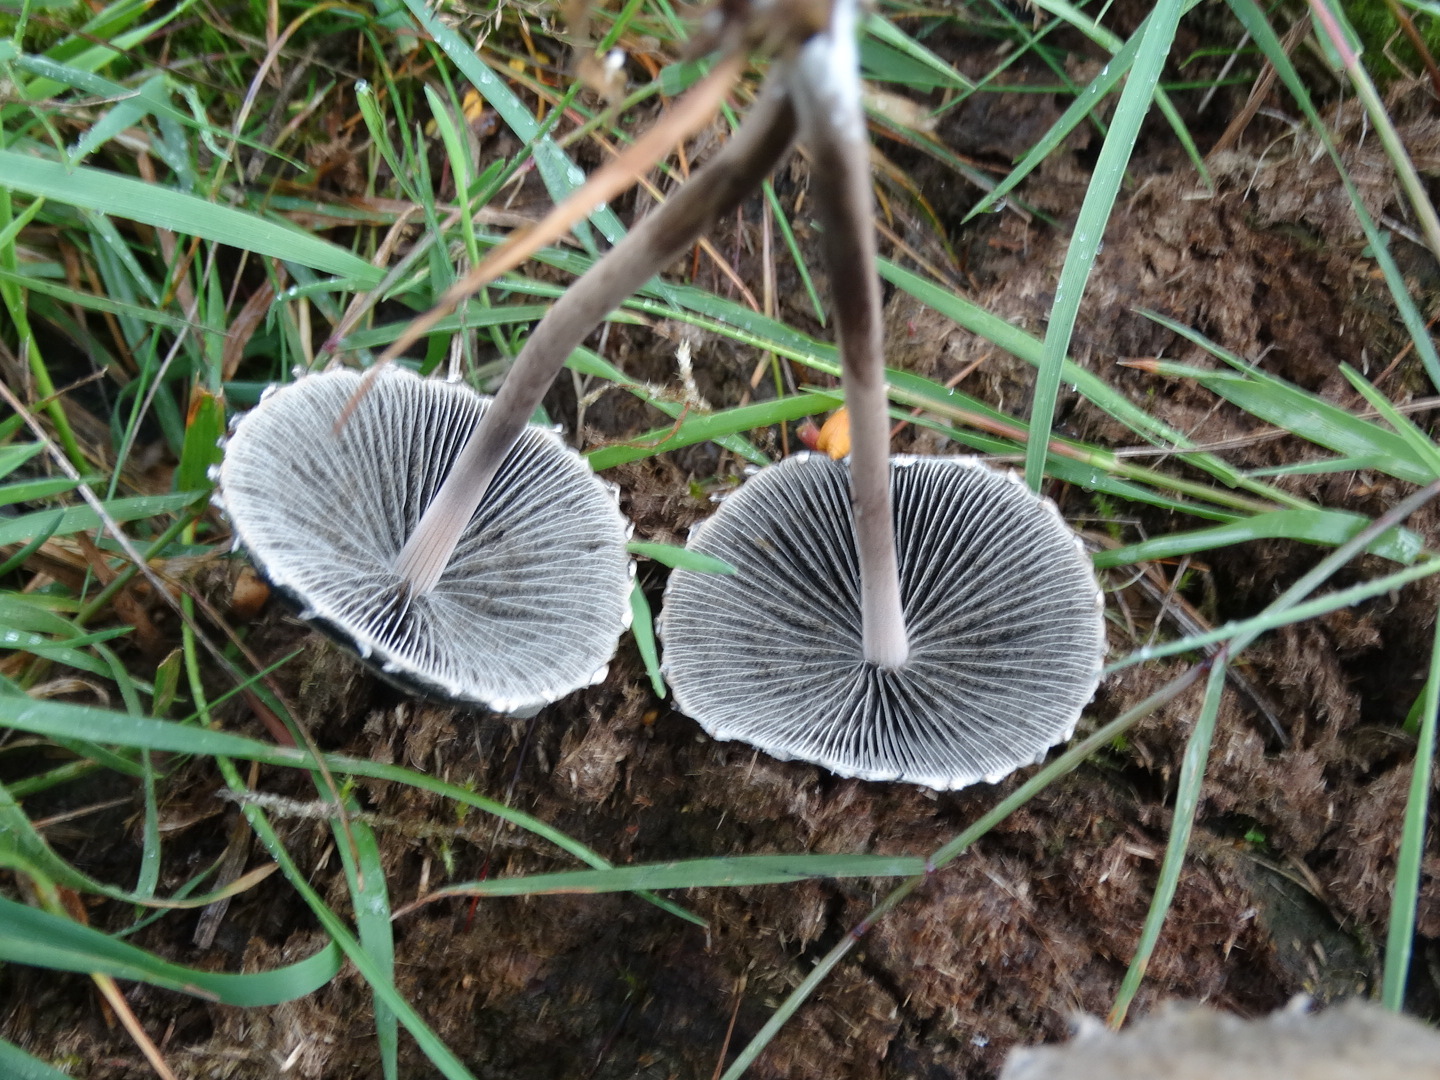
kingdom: Fungi
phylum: Basidiomycota
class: Agaricomycetes
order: Agaricales
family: Bolbitiaceae
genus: Panaeolus
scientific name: Panaeolus papilionaceus
